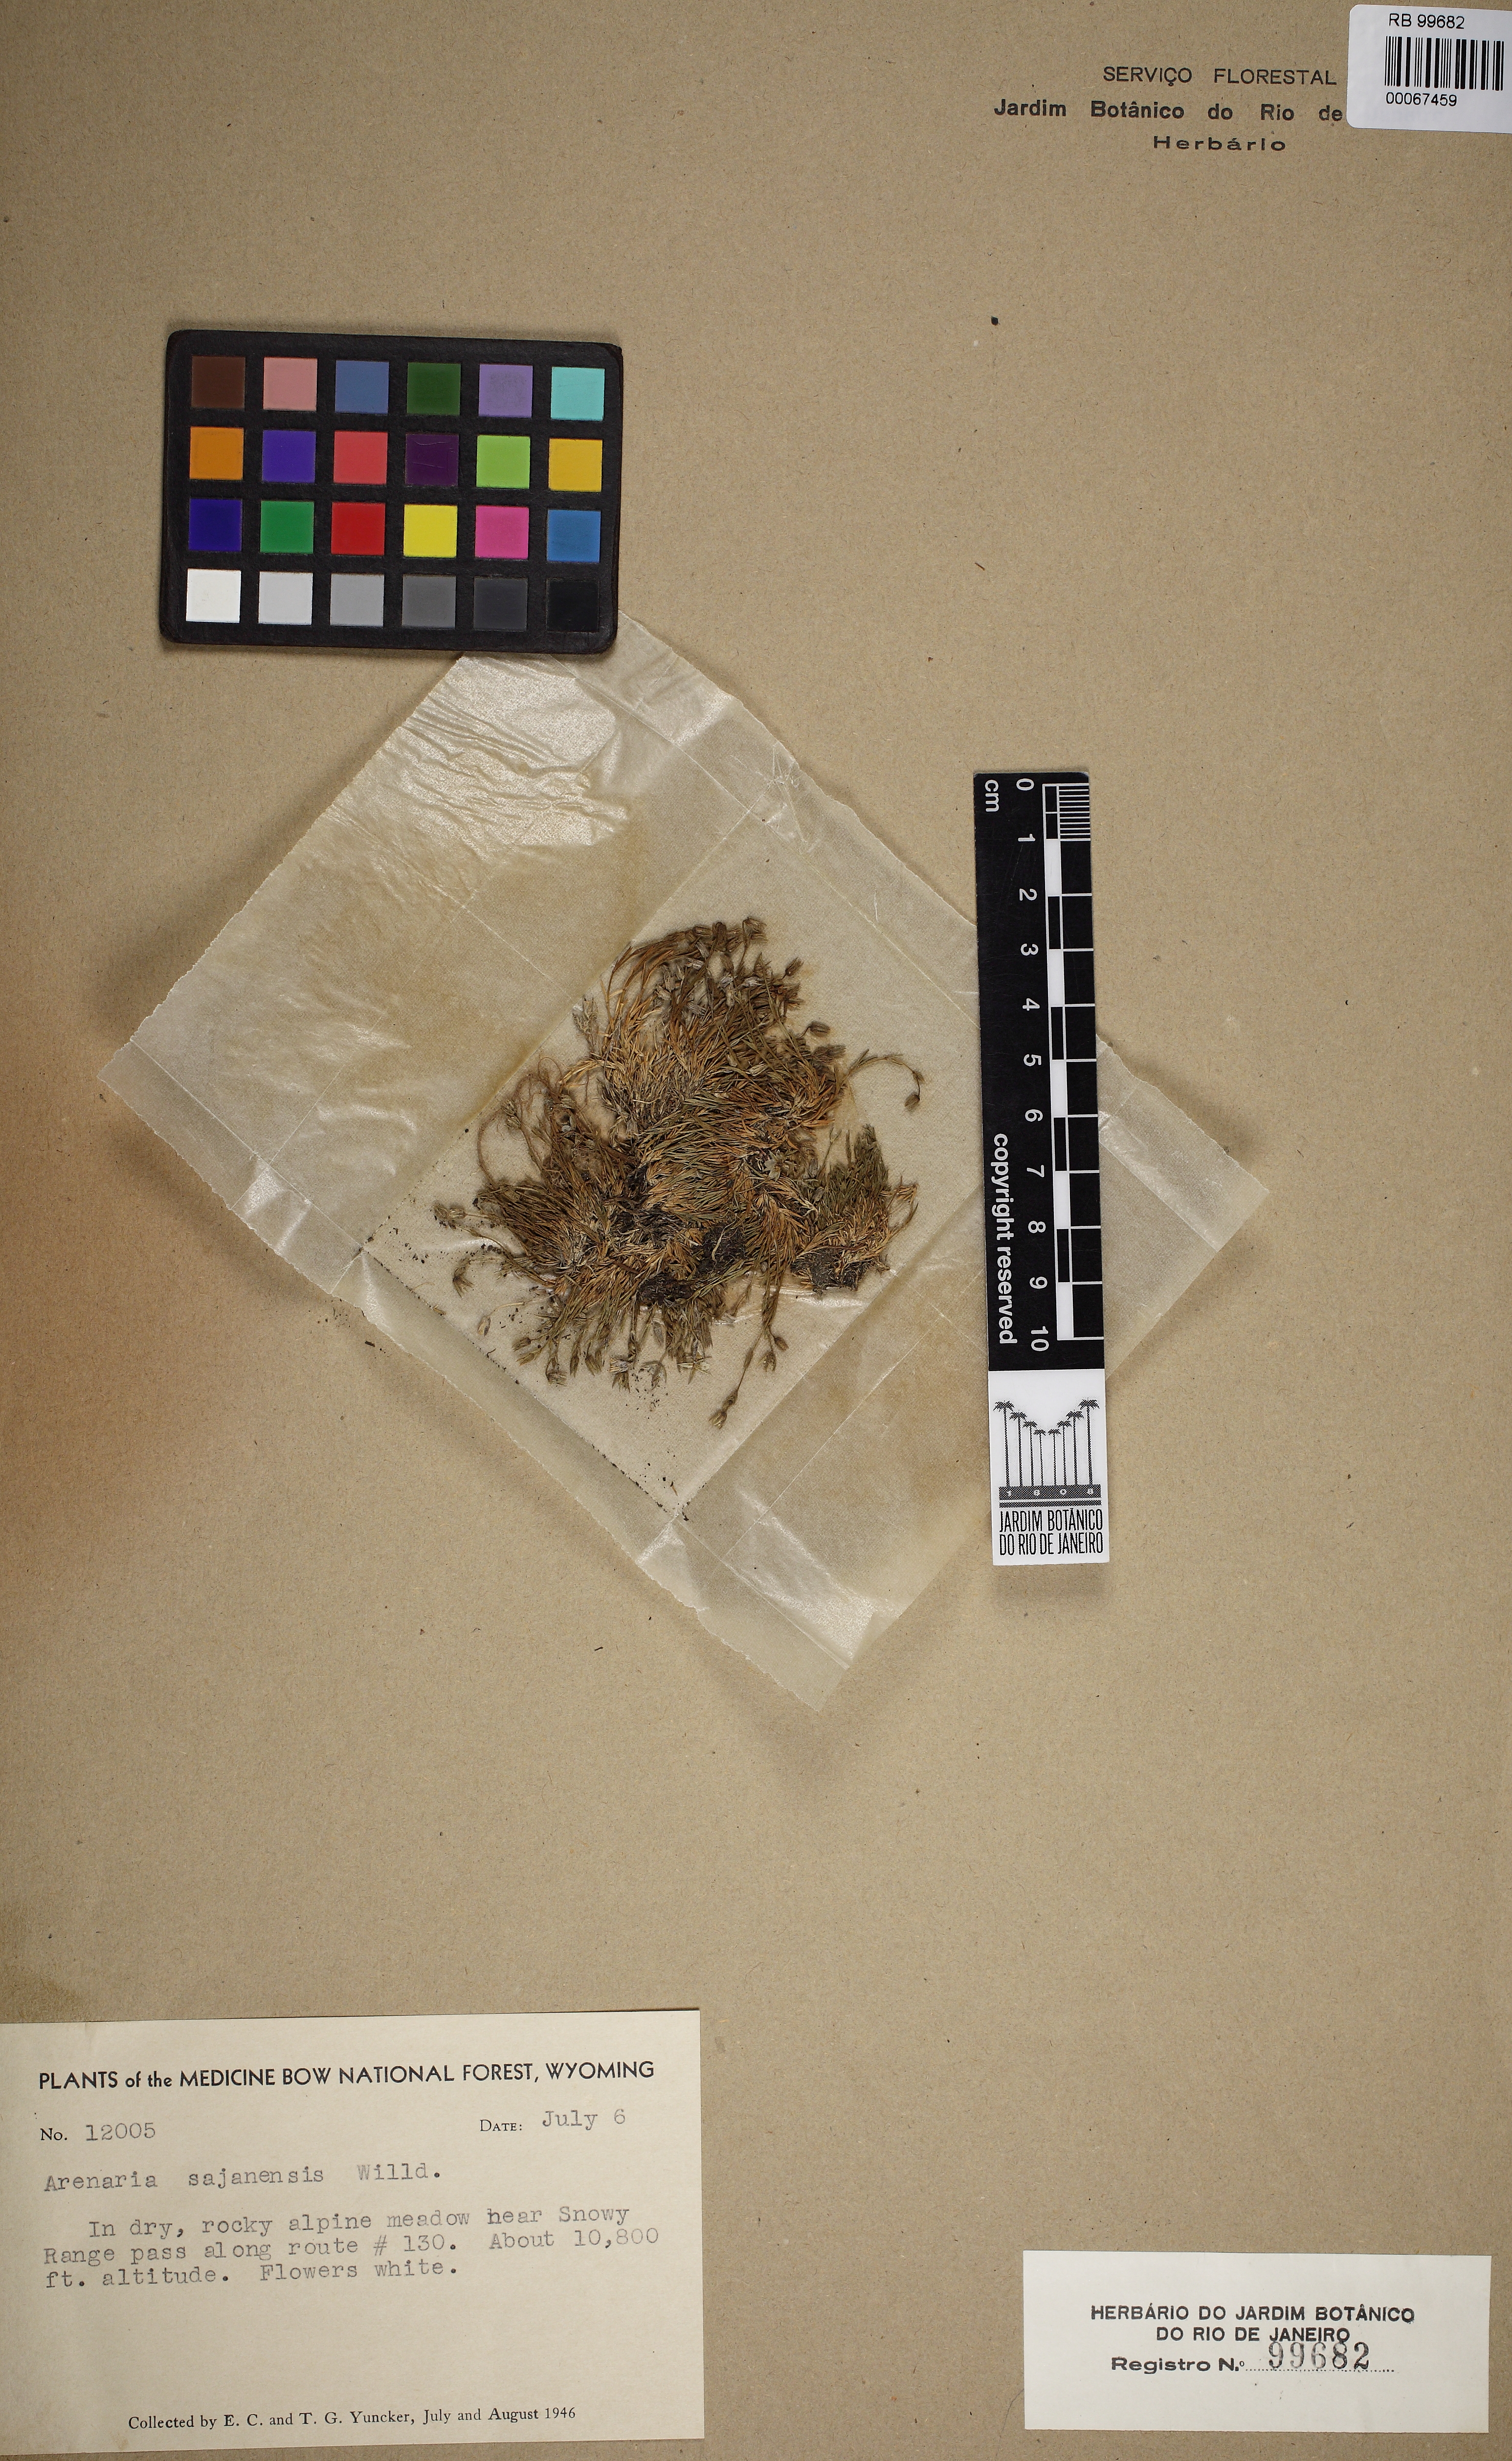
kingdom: Plantae
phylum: Tracheophyta
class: Magnoliopsida
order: Caryophyllales
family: Caryophyllaceae
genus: Cherleria
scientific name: Cherleria biflora
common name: Mountain sandwort
